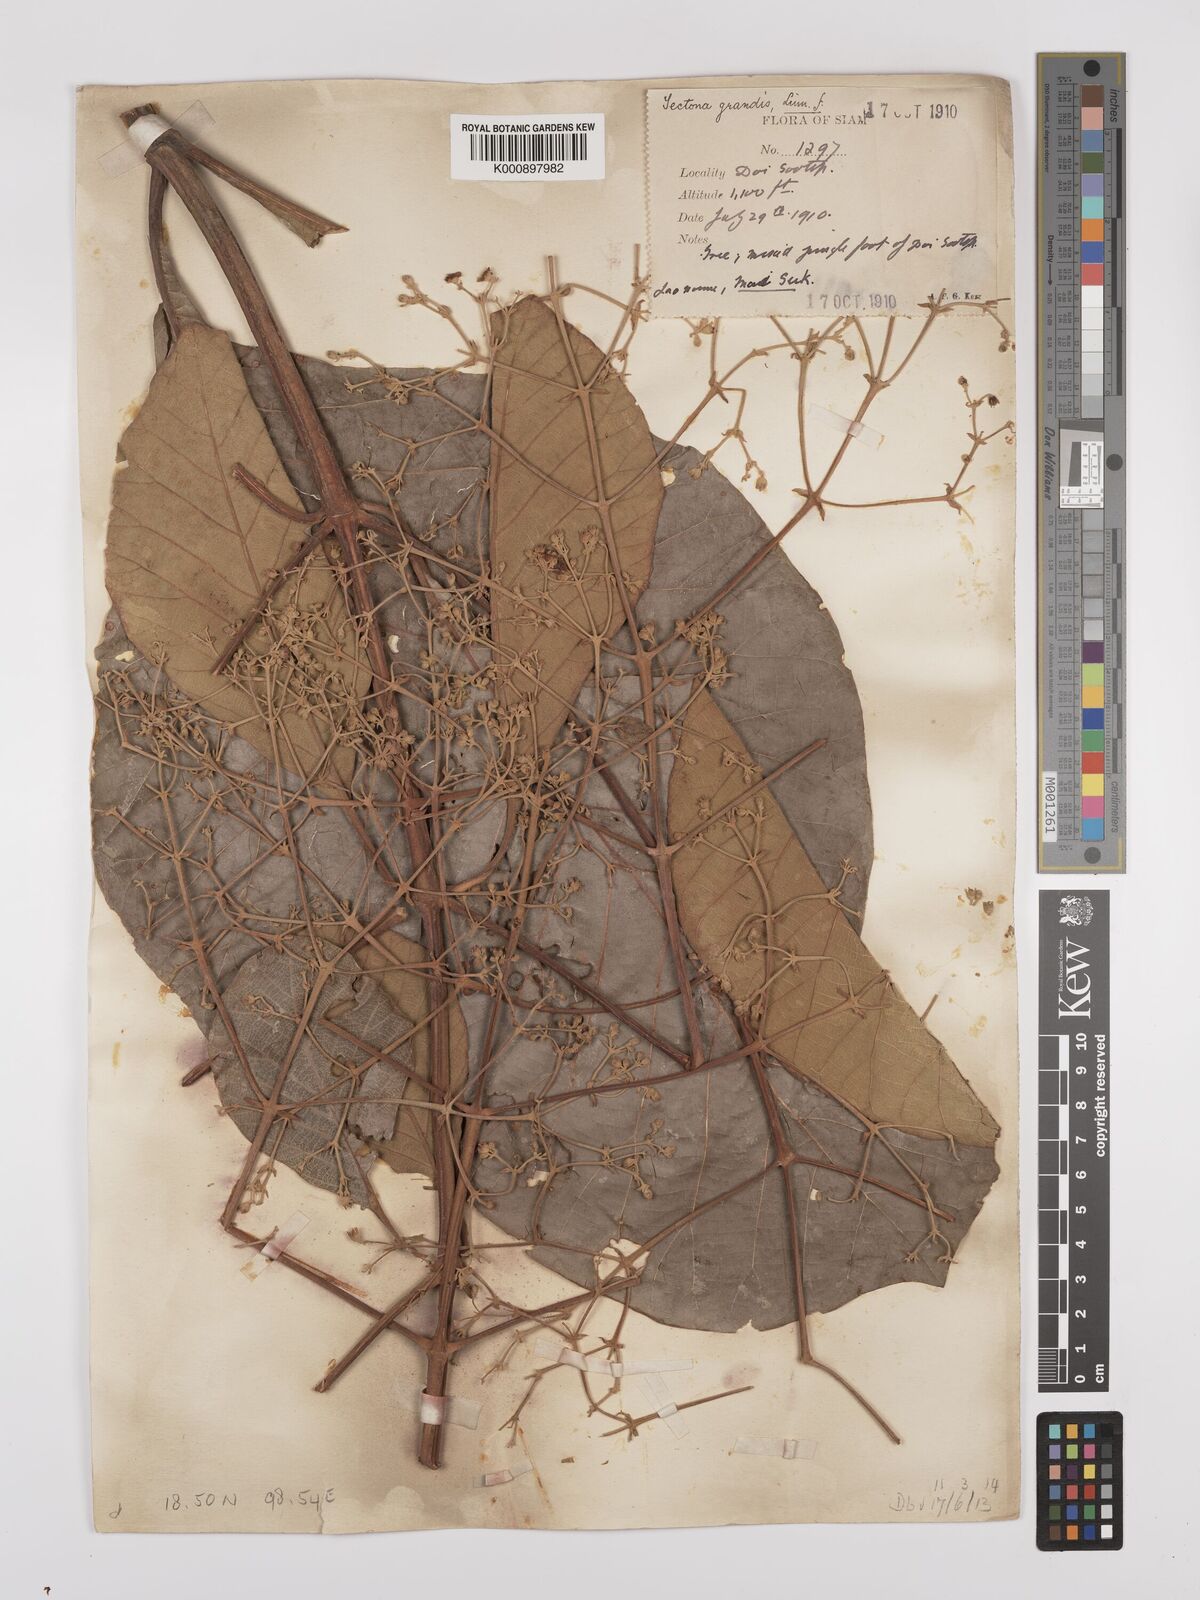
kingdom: Plantae
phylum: Tracheophyta
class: Magnoliopsida
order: Lamiales
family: Lamiaceae
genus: Tectona
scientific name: Tectona grandis
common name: Teak
